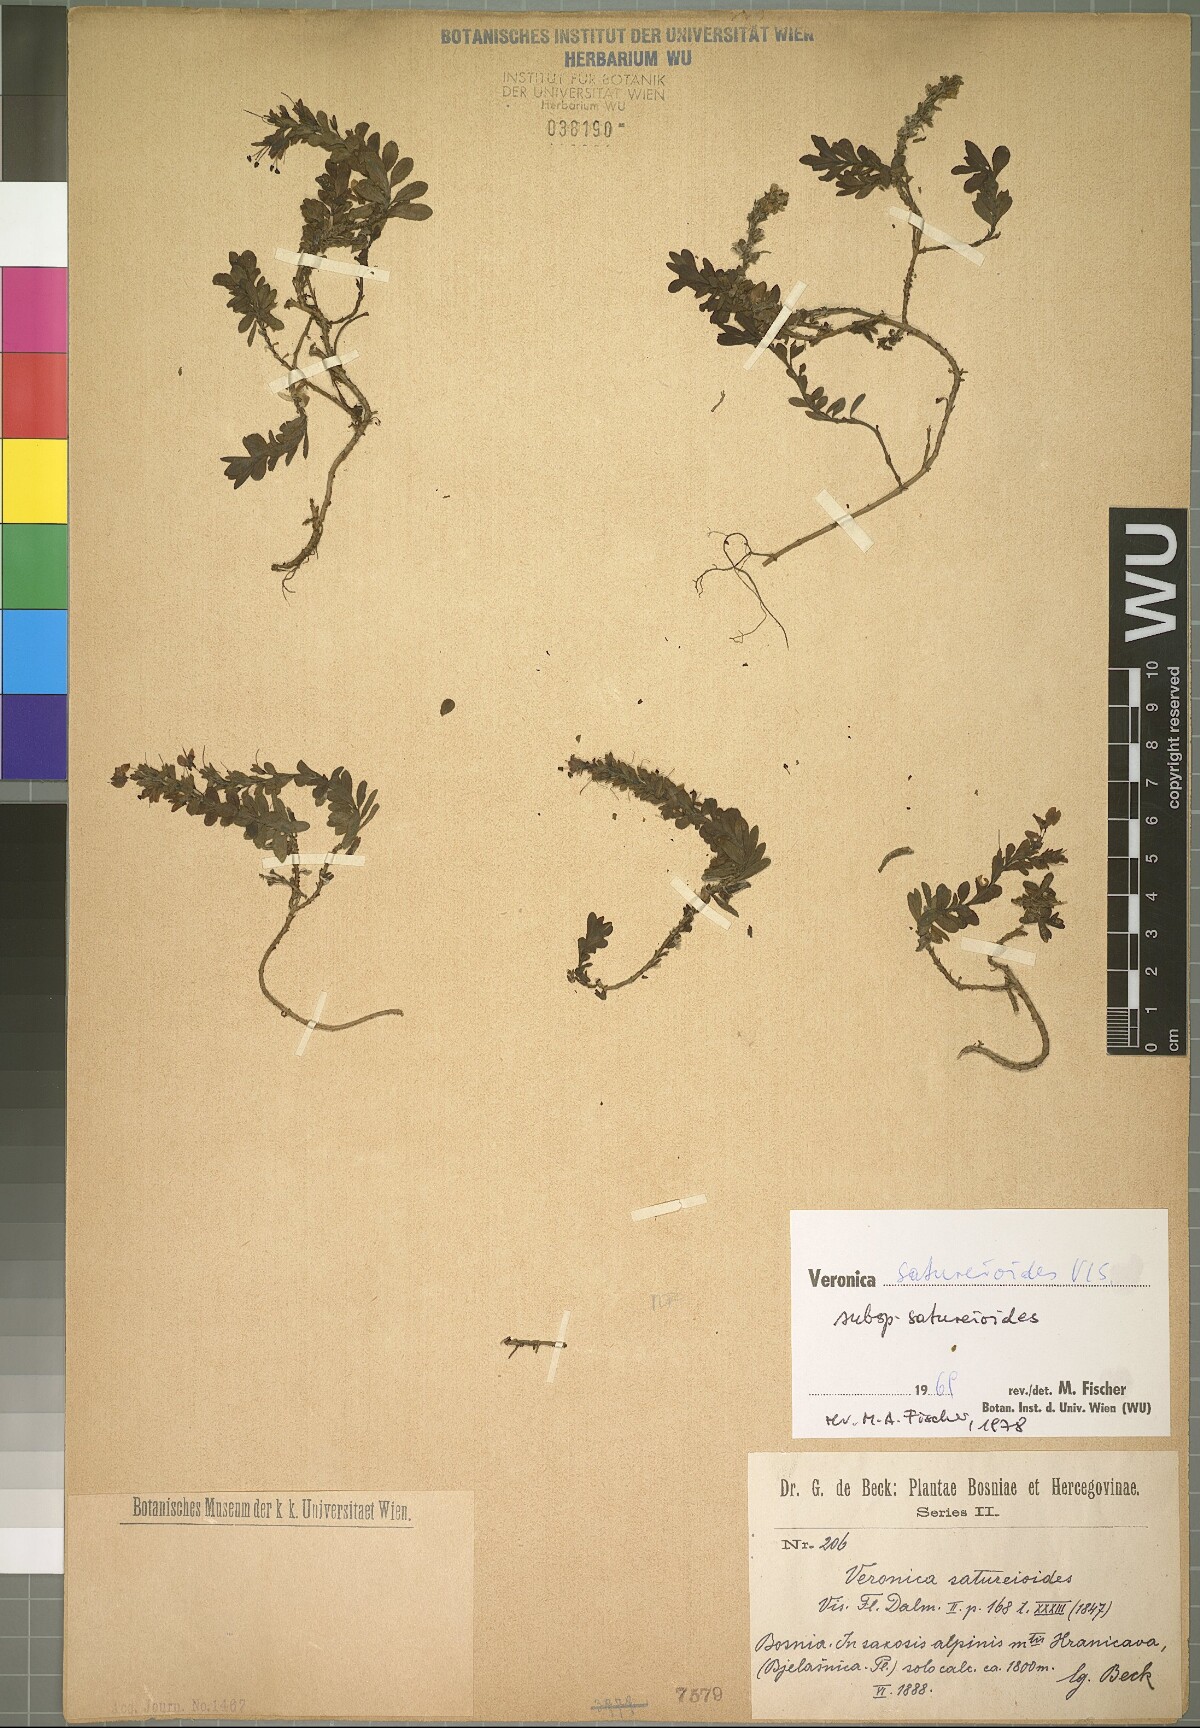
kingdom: Plantae
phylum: Tracheophyta
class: Magnoliopsida
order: Lamiales
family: Plantaginaceae
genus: Veronica
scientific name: Veronica saturejoides
